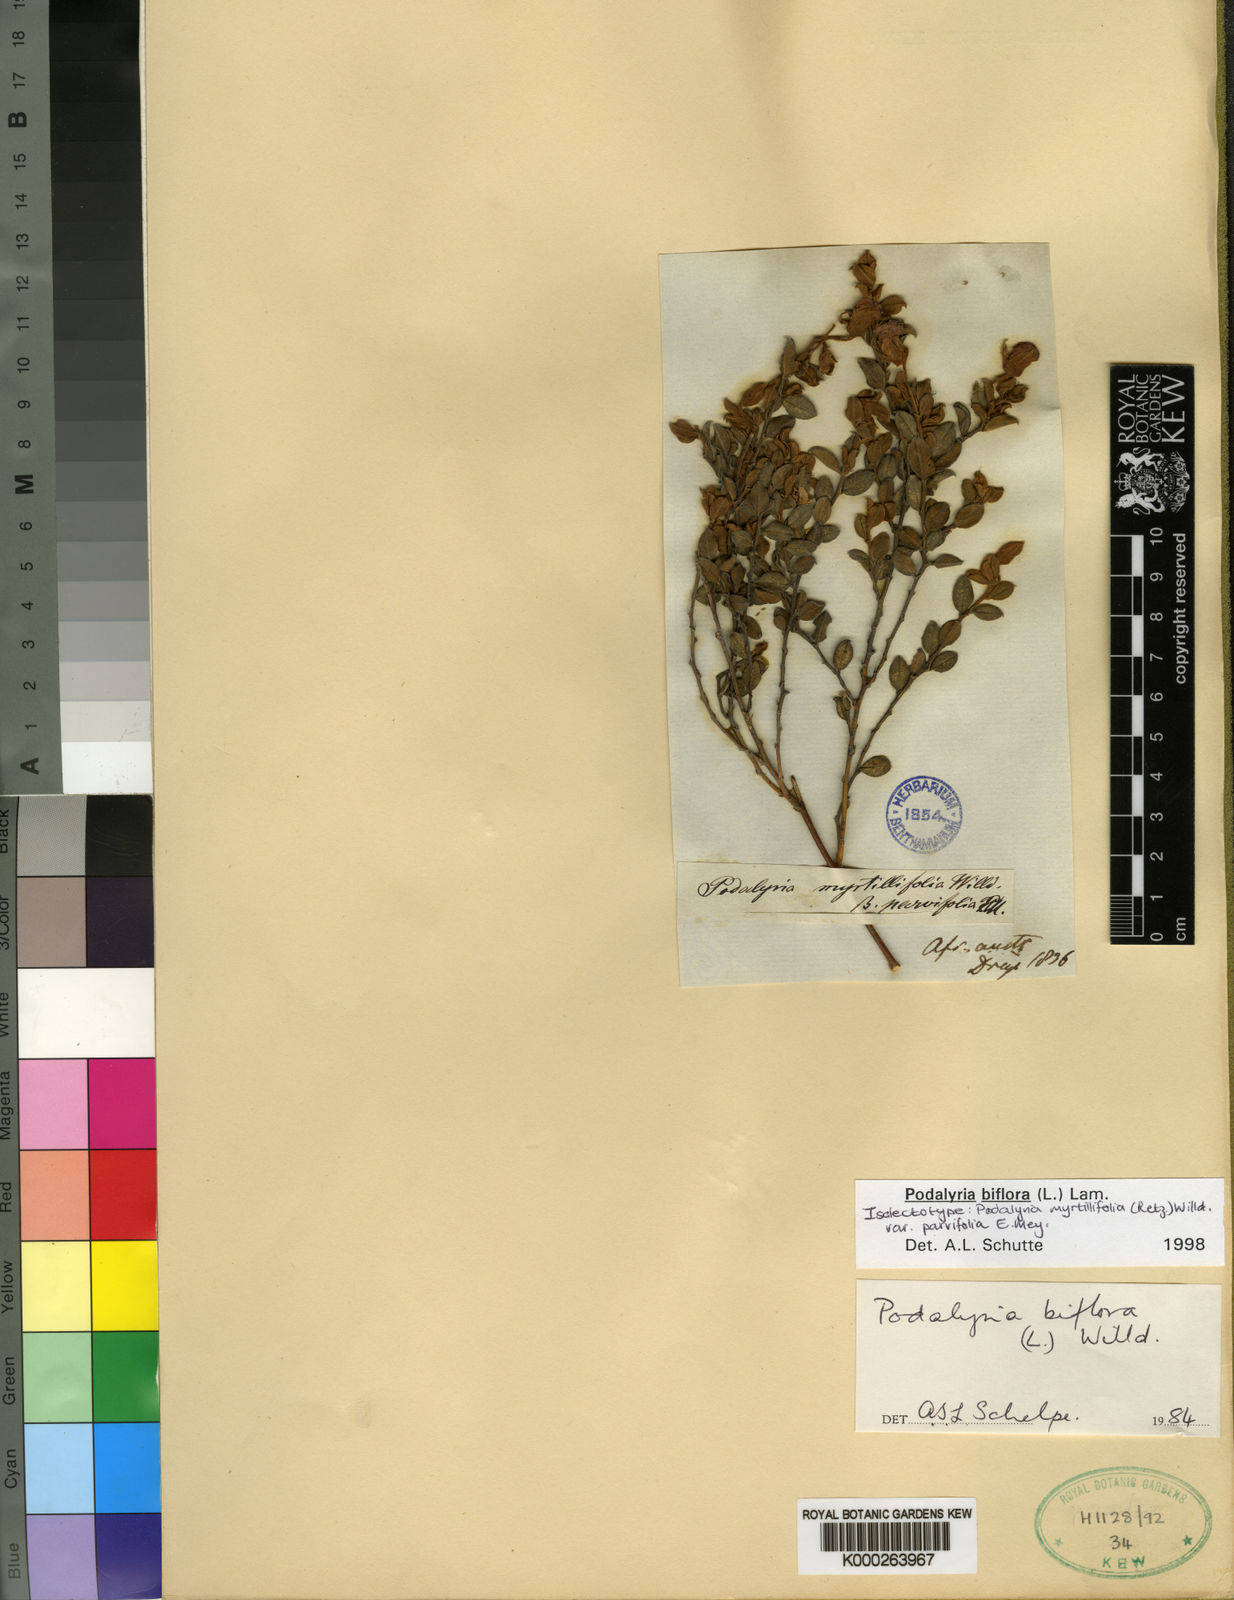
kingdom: Plantae
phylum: Tracheophyta
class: Magnoliopsida
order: Fabales
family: Fabaceae
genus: Podalyria
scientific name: Podalyria biflora
